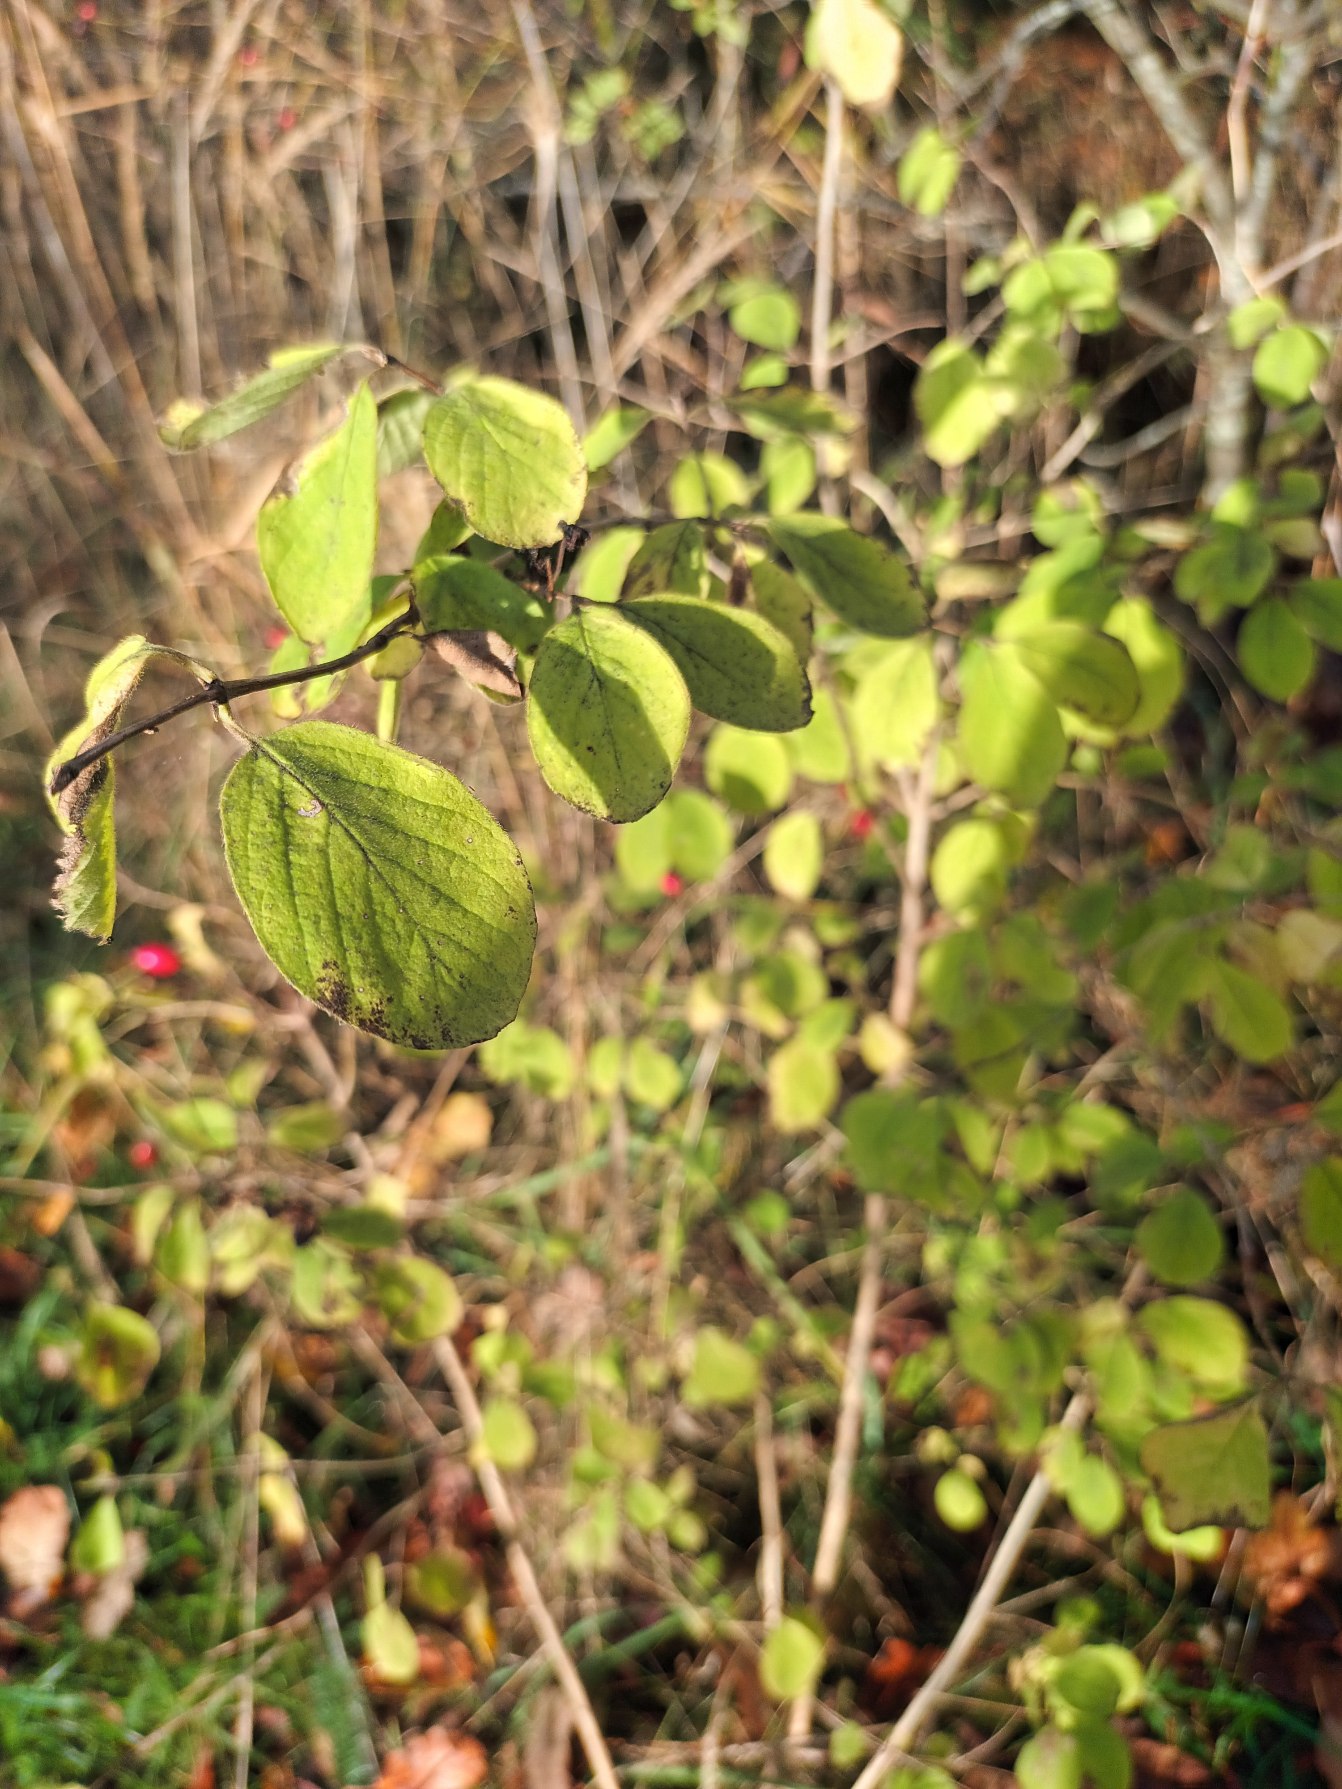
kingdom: Plantae
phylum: Tracheophyta
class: Magnoliopsida
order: Dipsacales
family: Caprifoliaceae
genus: Lonicera
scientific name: Lonicera xylosteum
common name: Dunet gedeblad
